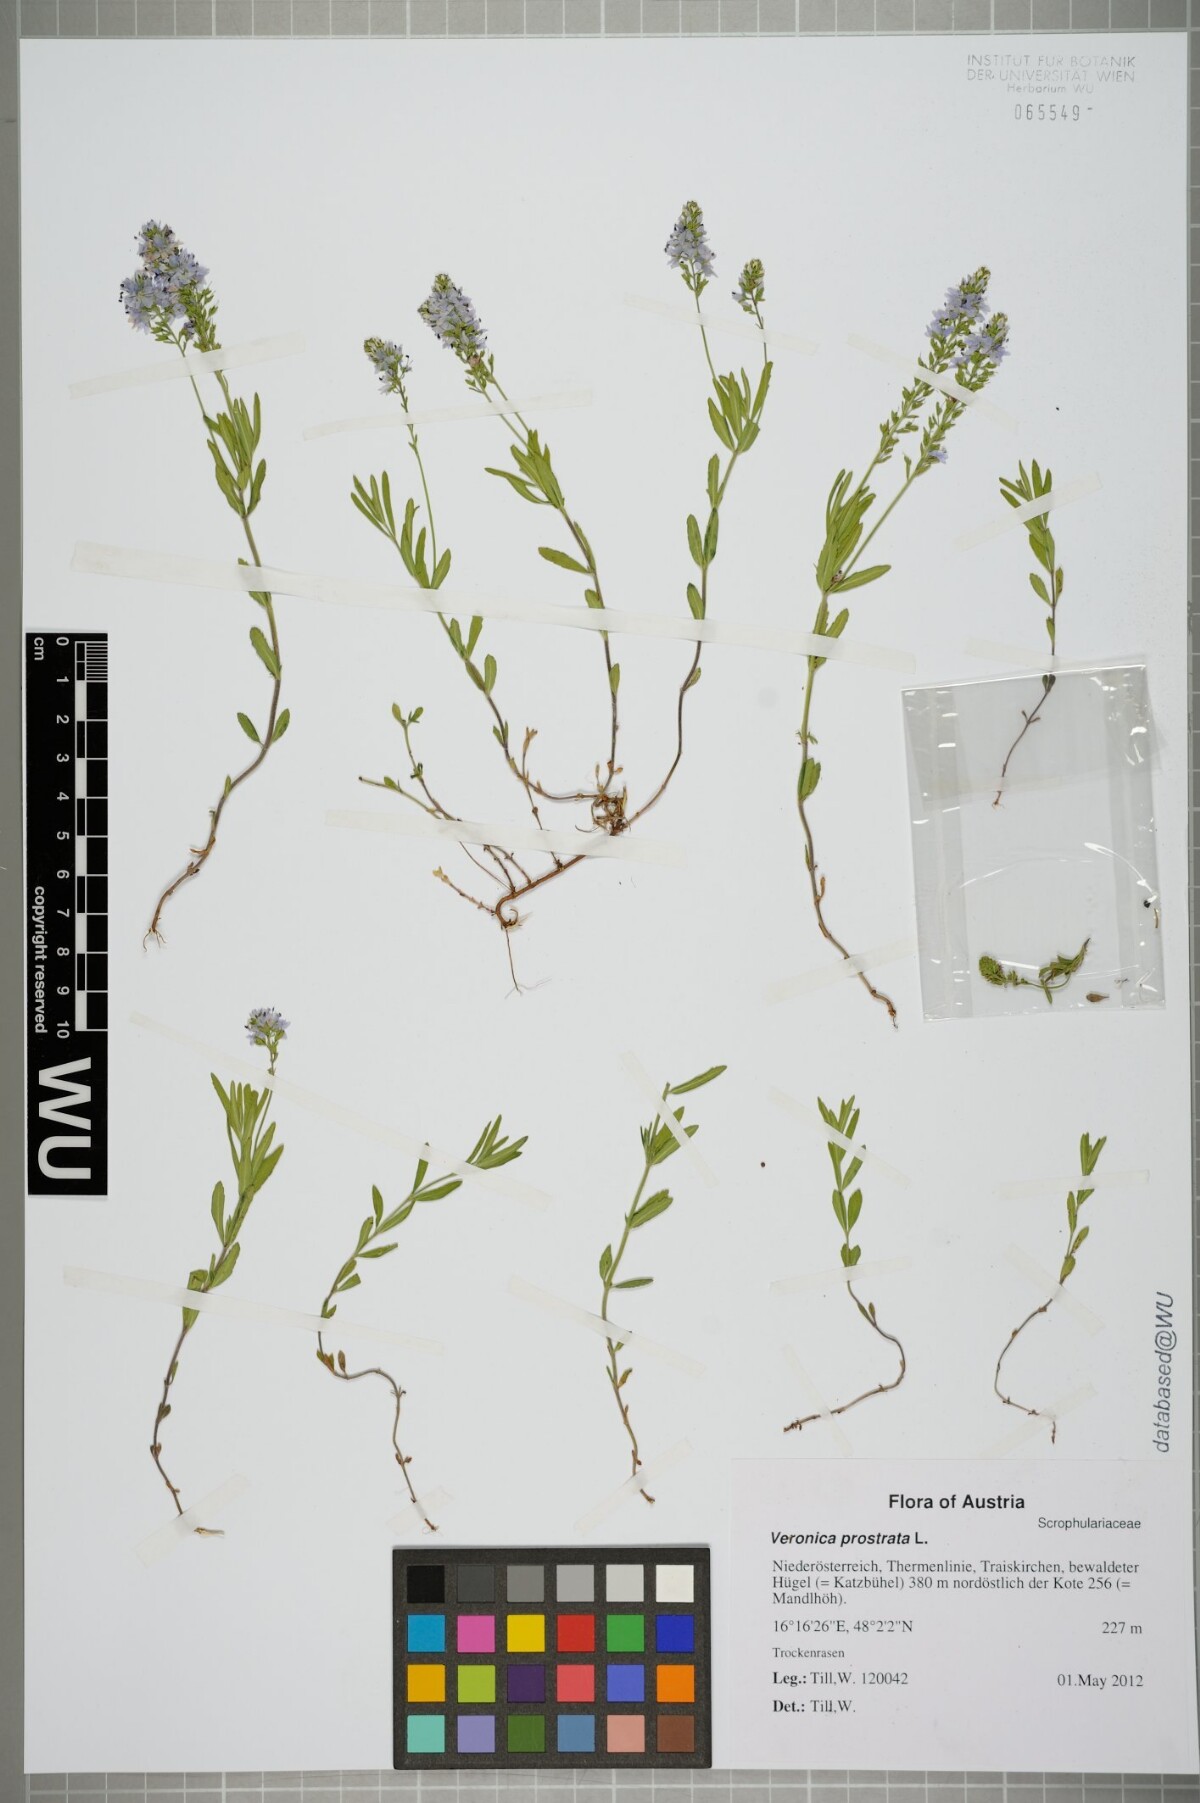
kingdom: Plantae
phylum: Tracheophyta
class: Magnoliopsida
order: Lamiales
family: Plantaginaceae
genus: Veronica
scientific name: Veronica prostrata
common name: Prostrate speedwell
